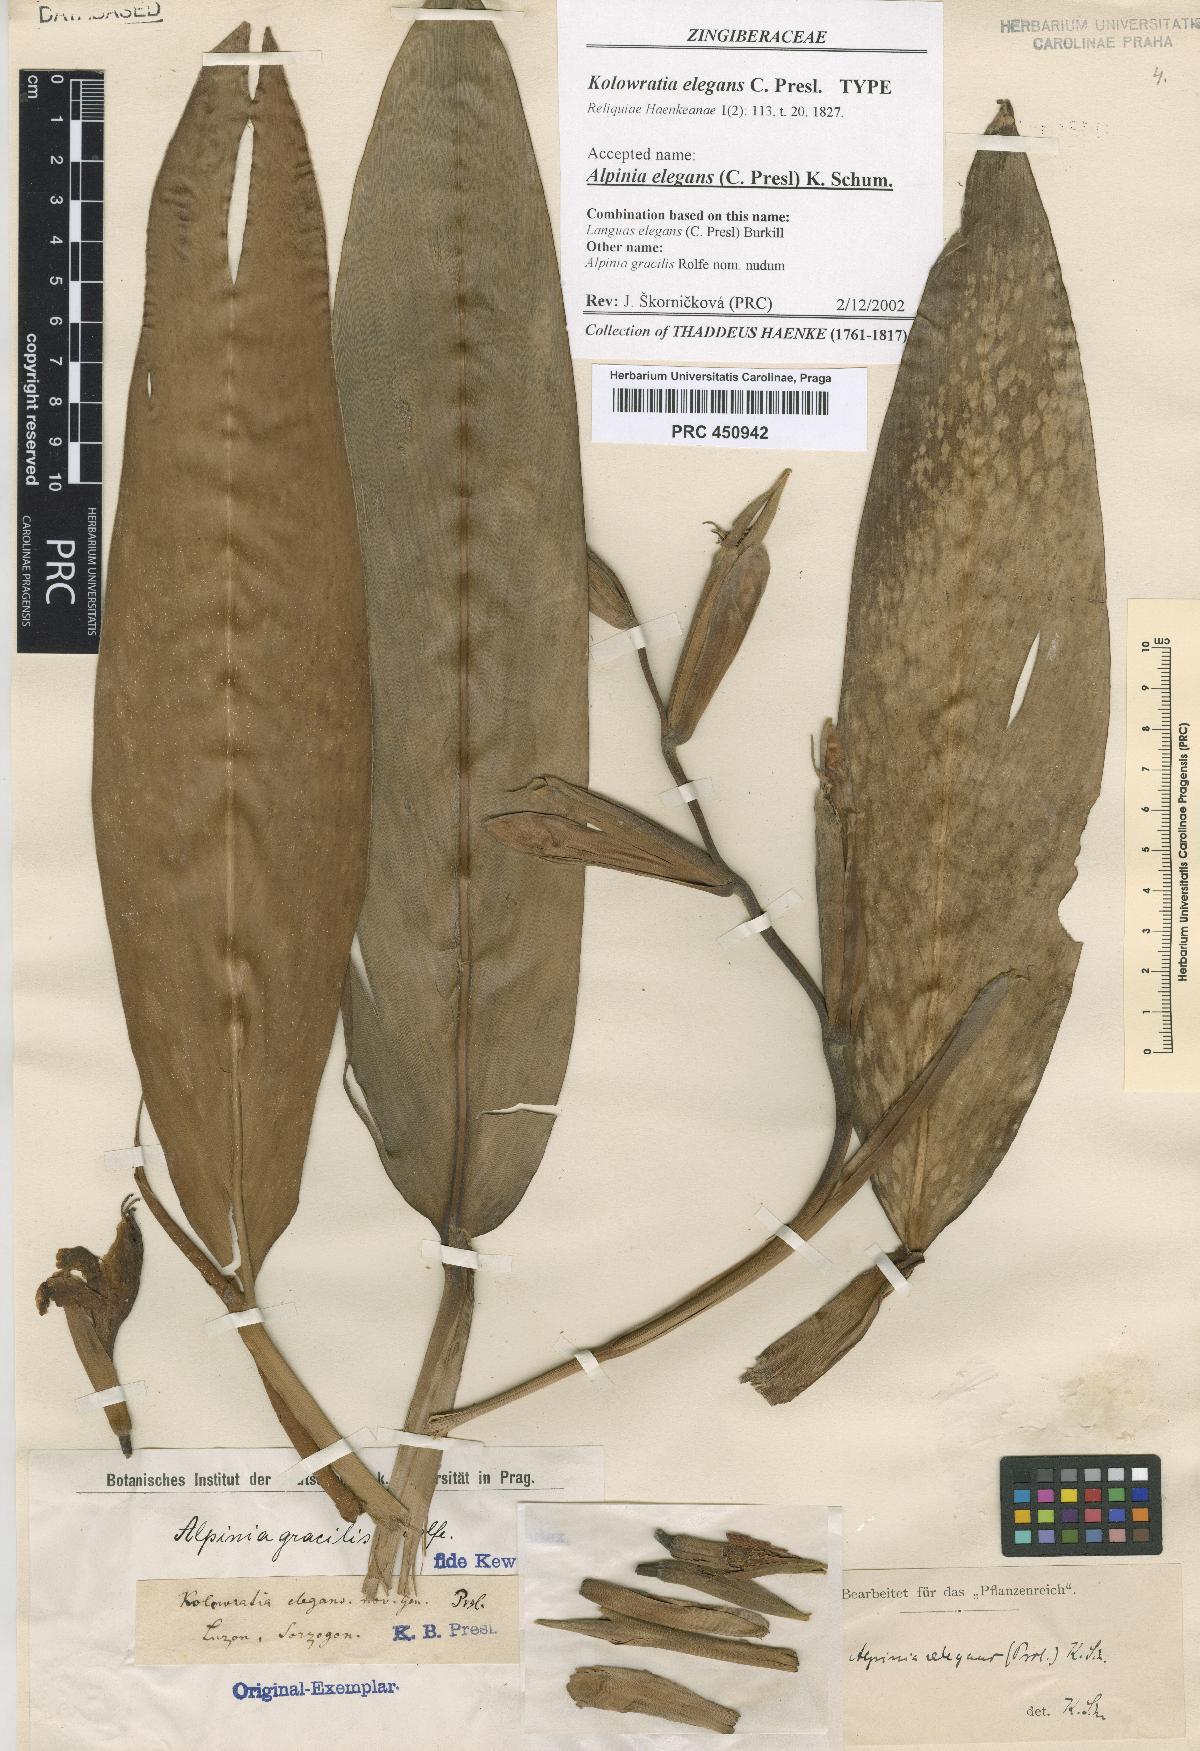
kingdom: Plantae
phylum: Tracheophyta
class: Liliopsida
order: Zingiberales
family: Zingiberaceae
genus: Alpinia
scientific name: Alpinia elegans
